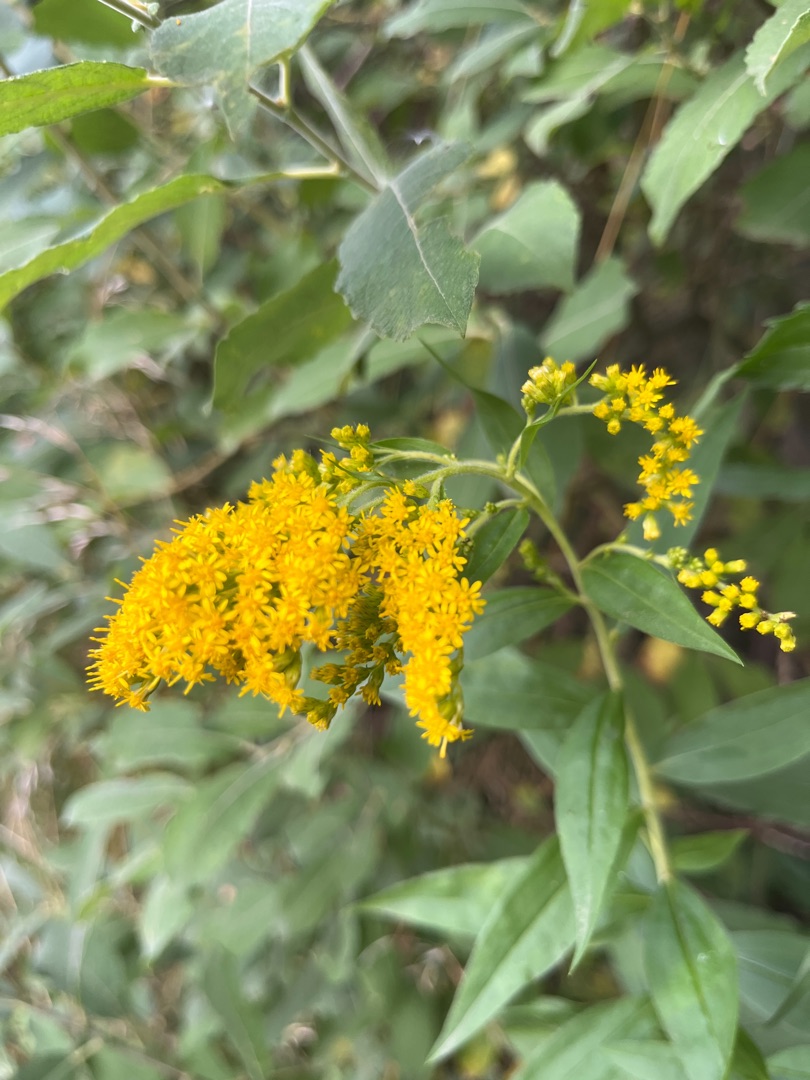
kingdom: Plantae
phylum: Tracheophyta
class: Magnoliopsida
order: Asterales
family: Asteraceae
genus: Solidago
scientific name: Solidago canadensis
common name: Kanadisk gyldenris
